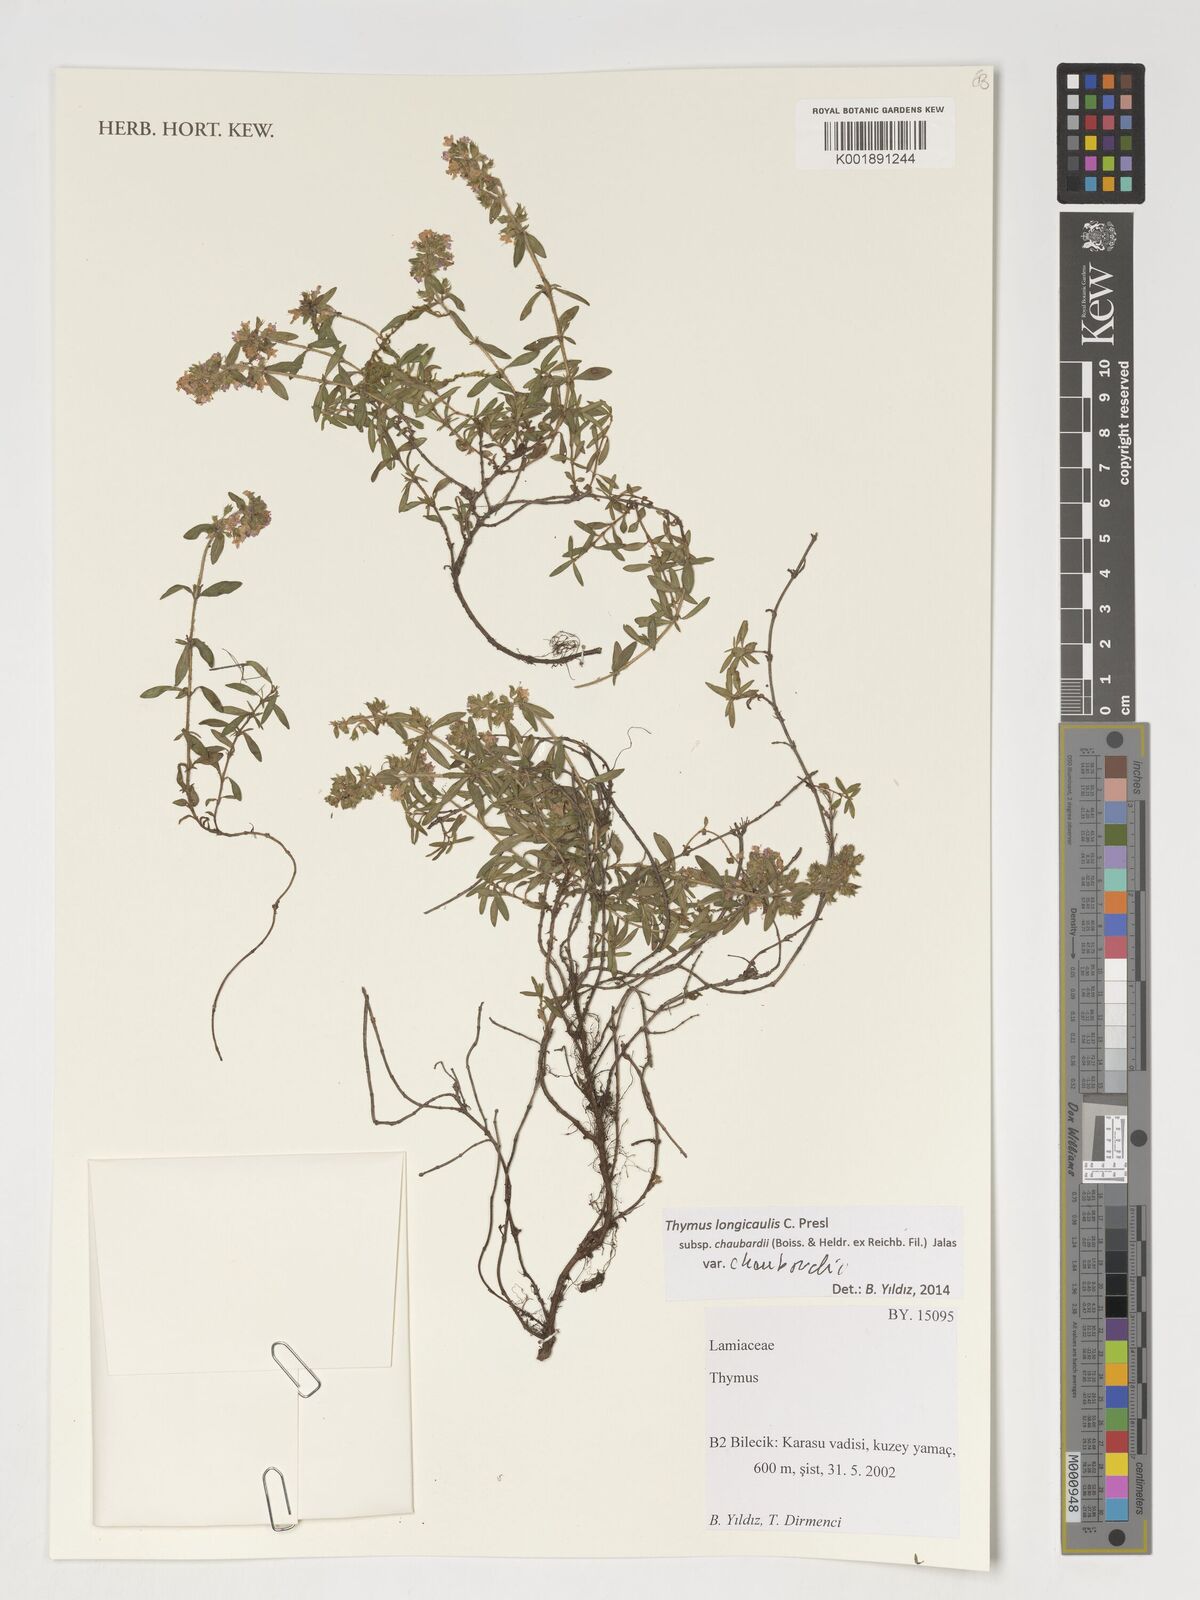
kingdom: Plantae
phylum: Tracheophyta
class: Magnoliopsida
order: Lamiales
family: Lamiaceae
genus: Thymus
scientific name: Thymus
